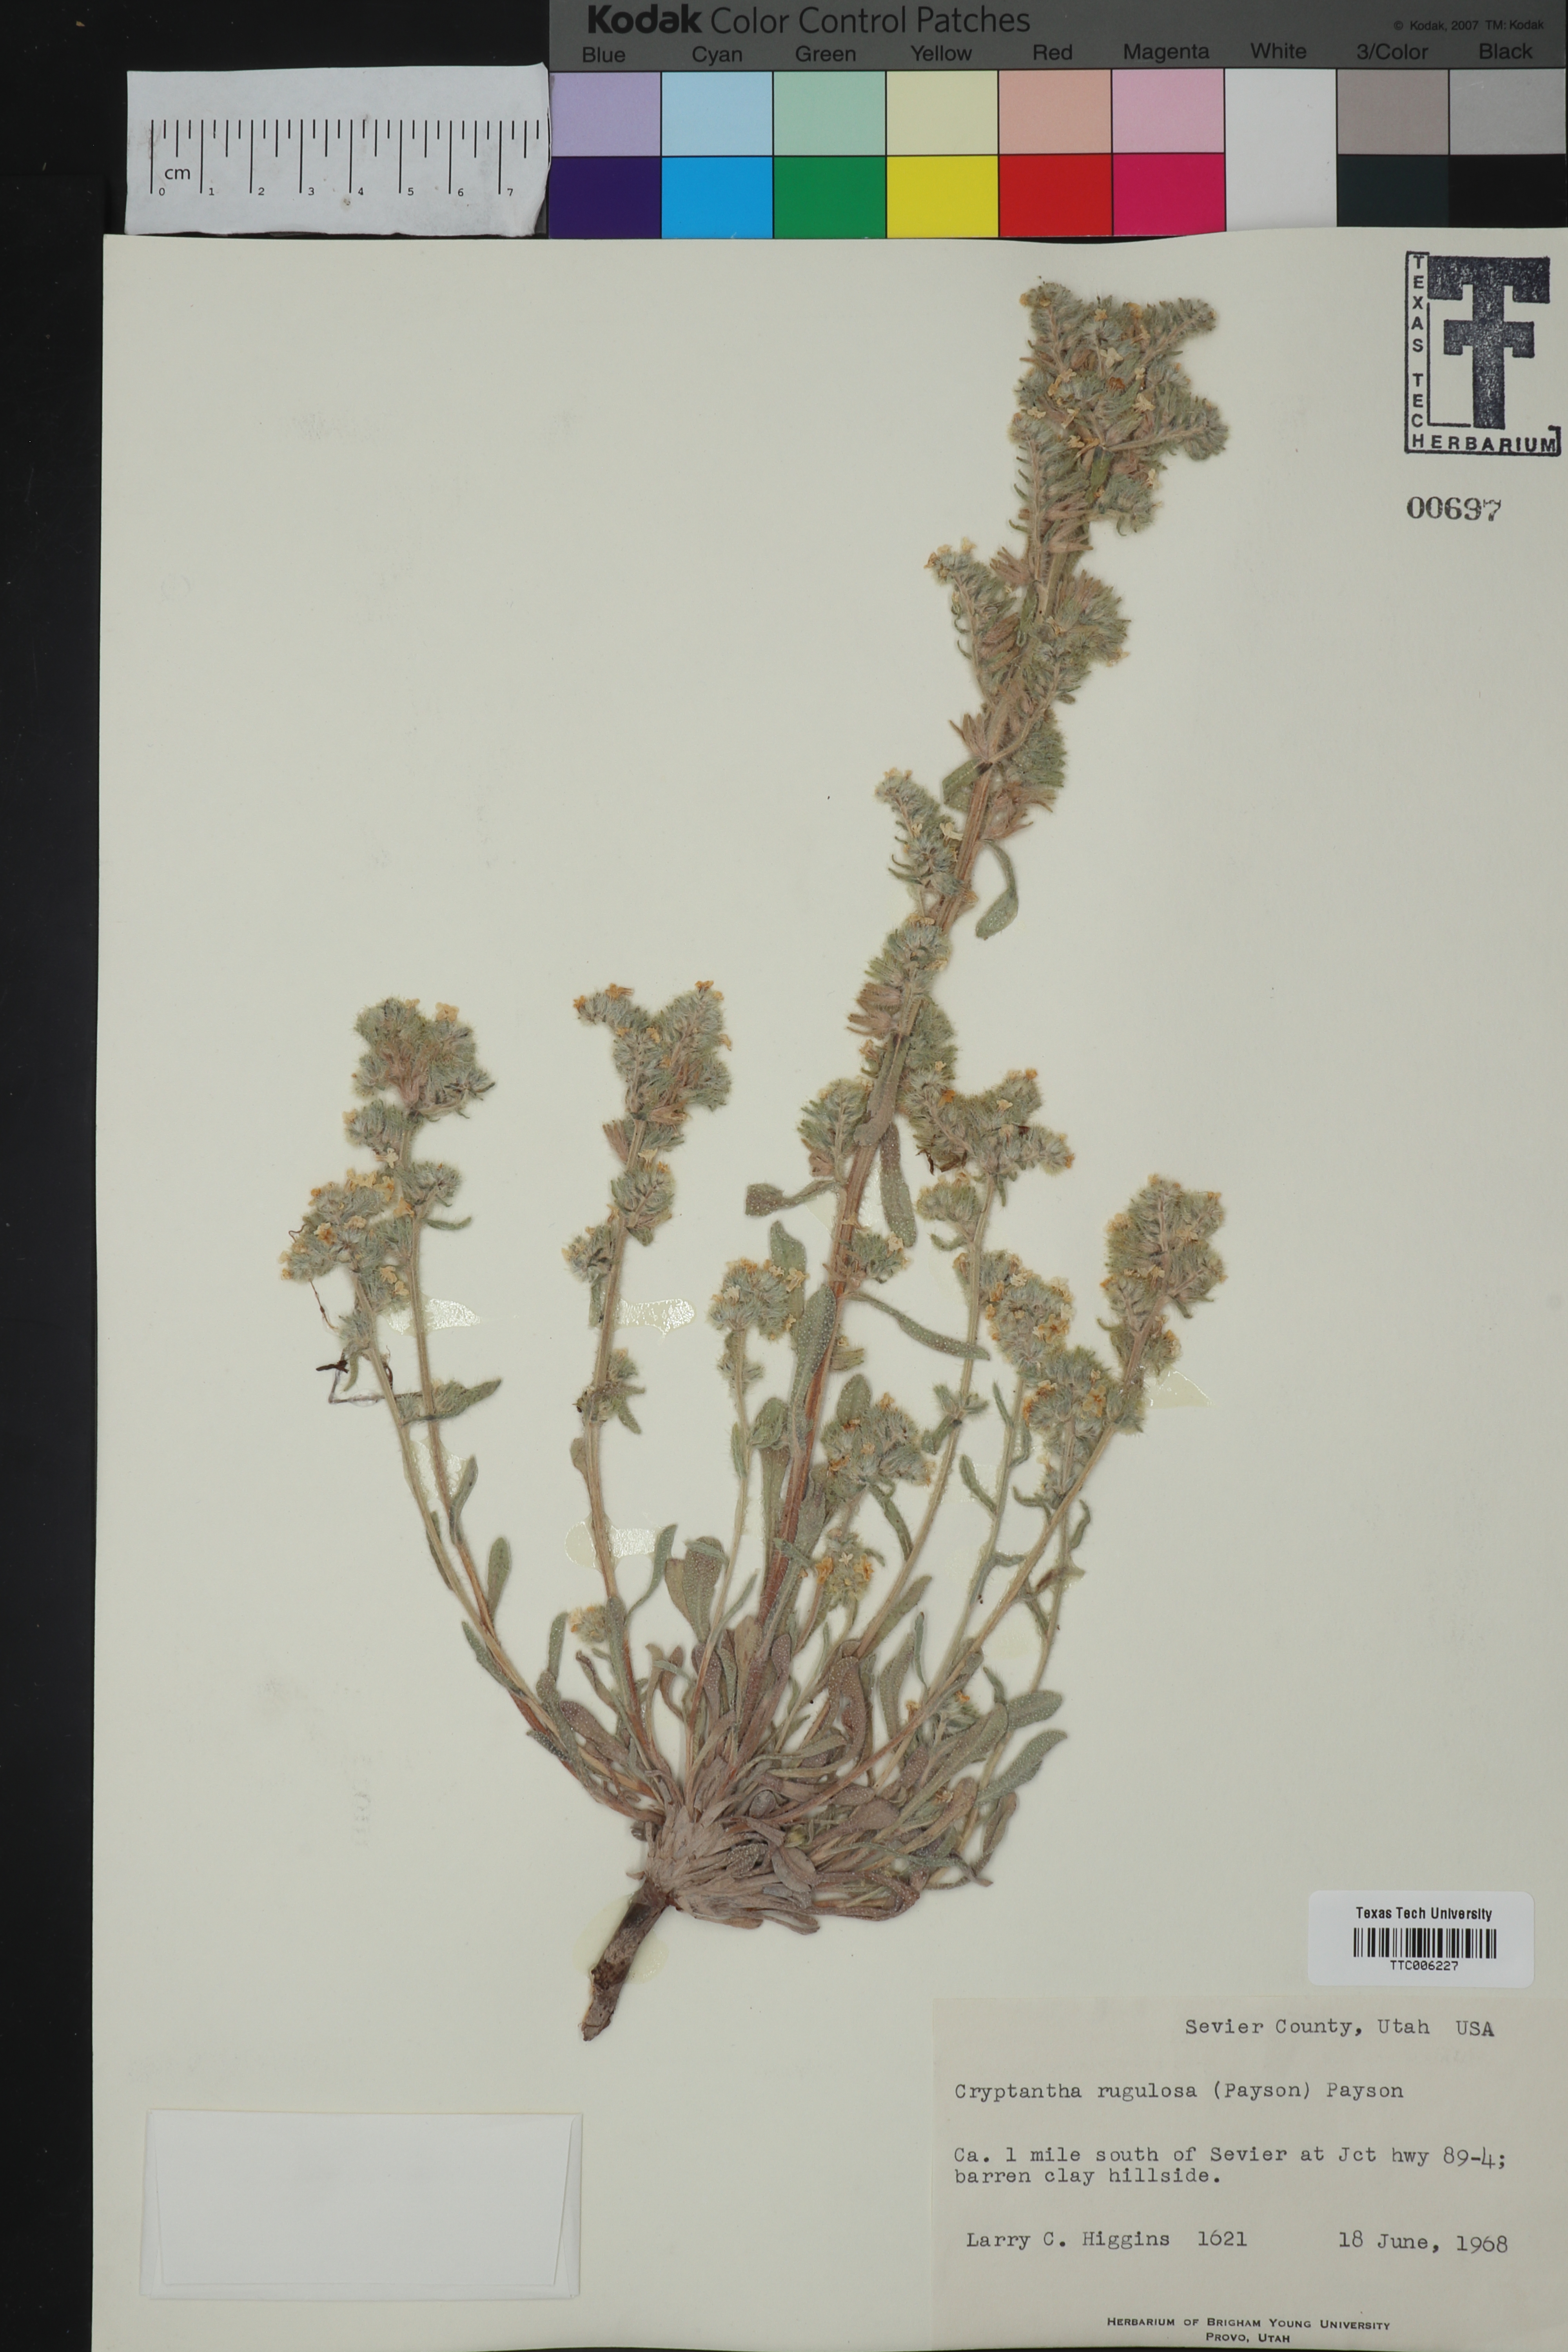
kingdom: Plantae
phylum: Tracheophyta
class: Magnoliopsida
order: Boraginales
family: Boraginaceae
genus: Oreocarya
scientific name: Oreocarya rugulosa
